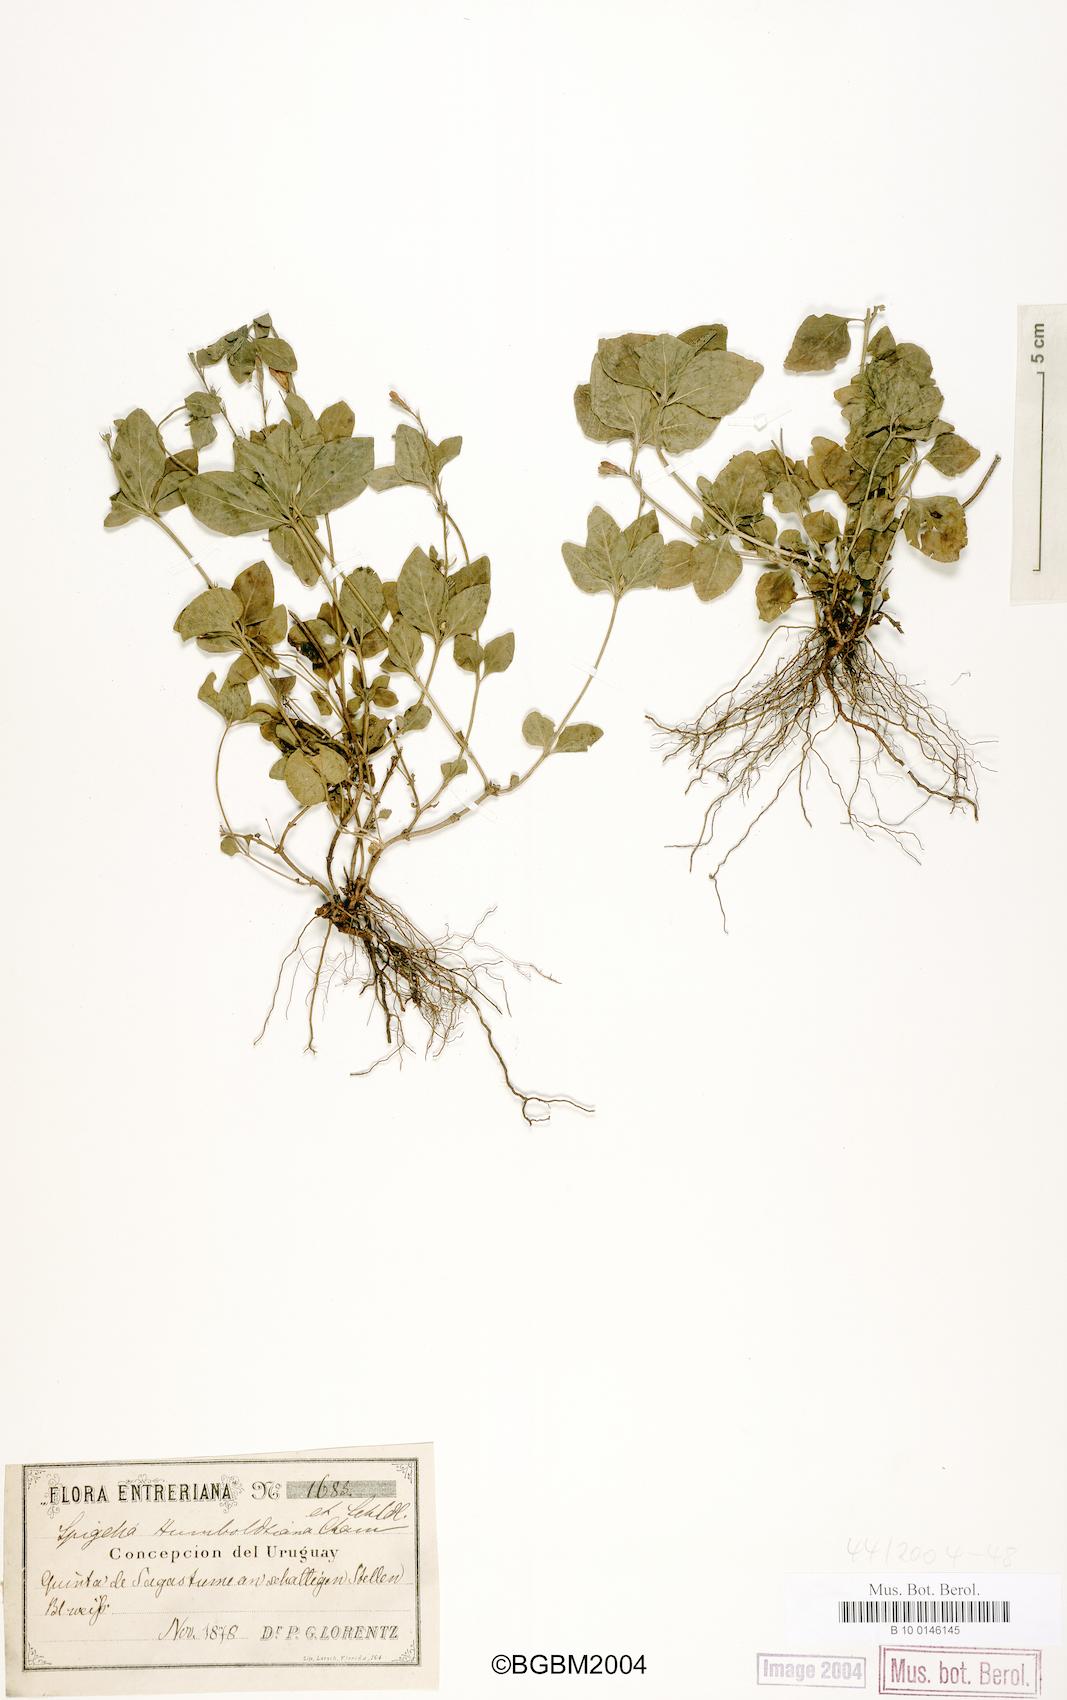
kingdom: Plantae
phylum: Tracheophyta
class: Magnoliopsida
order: Gentianales
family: Loganiaceae
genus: Spigelia
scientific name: Spigelia humboldtiana
